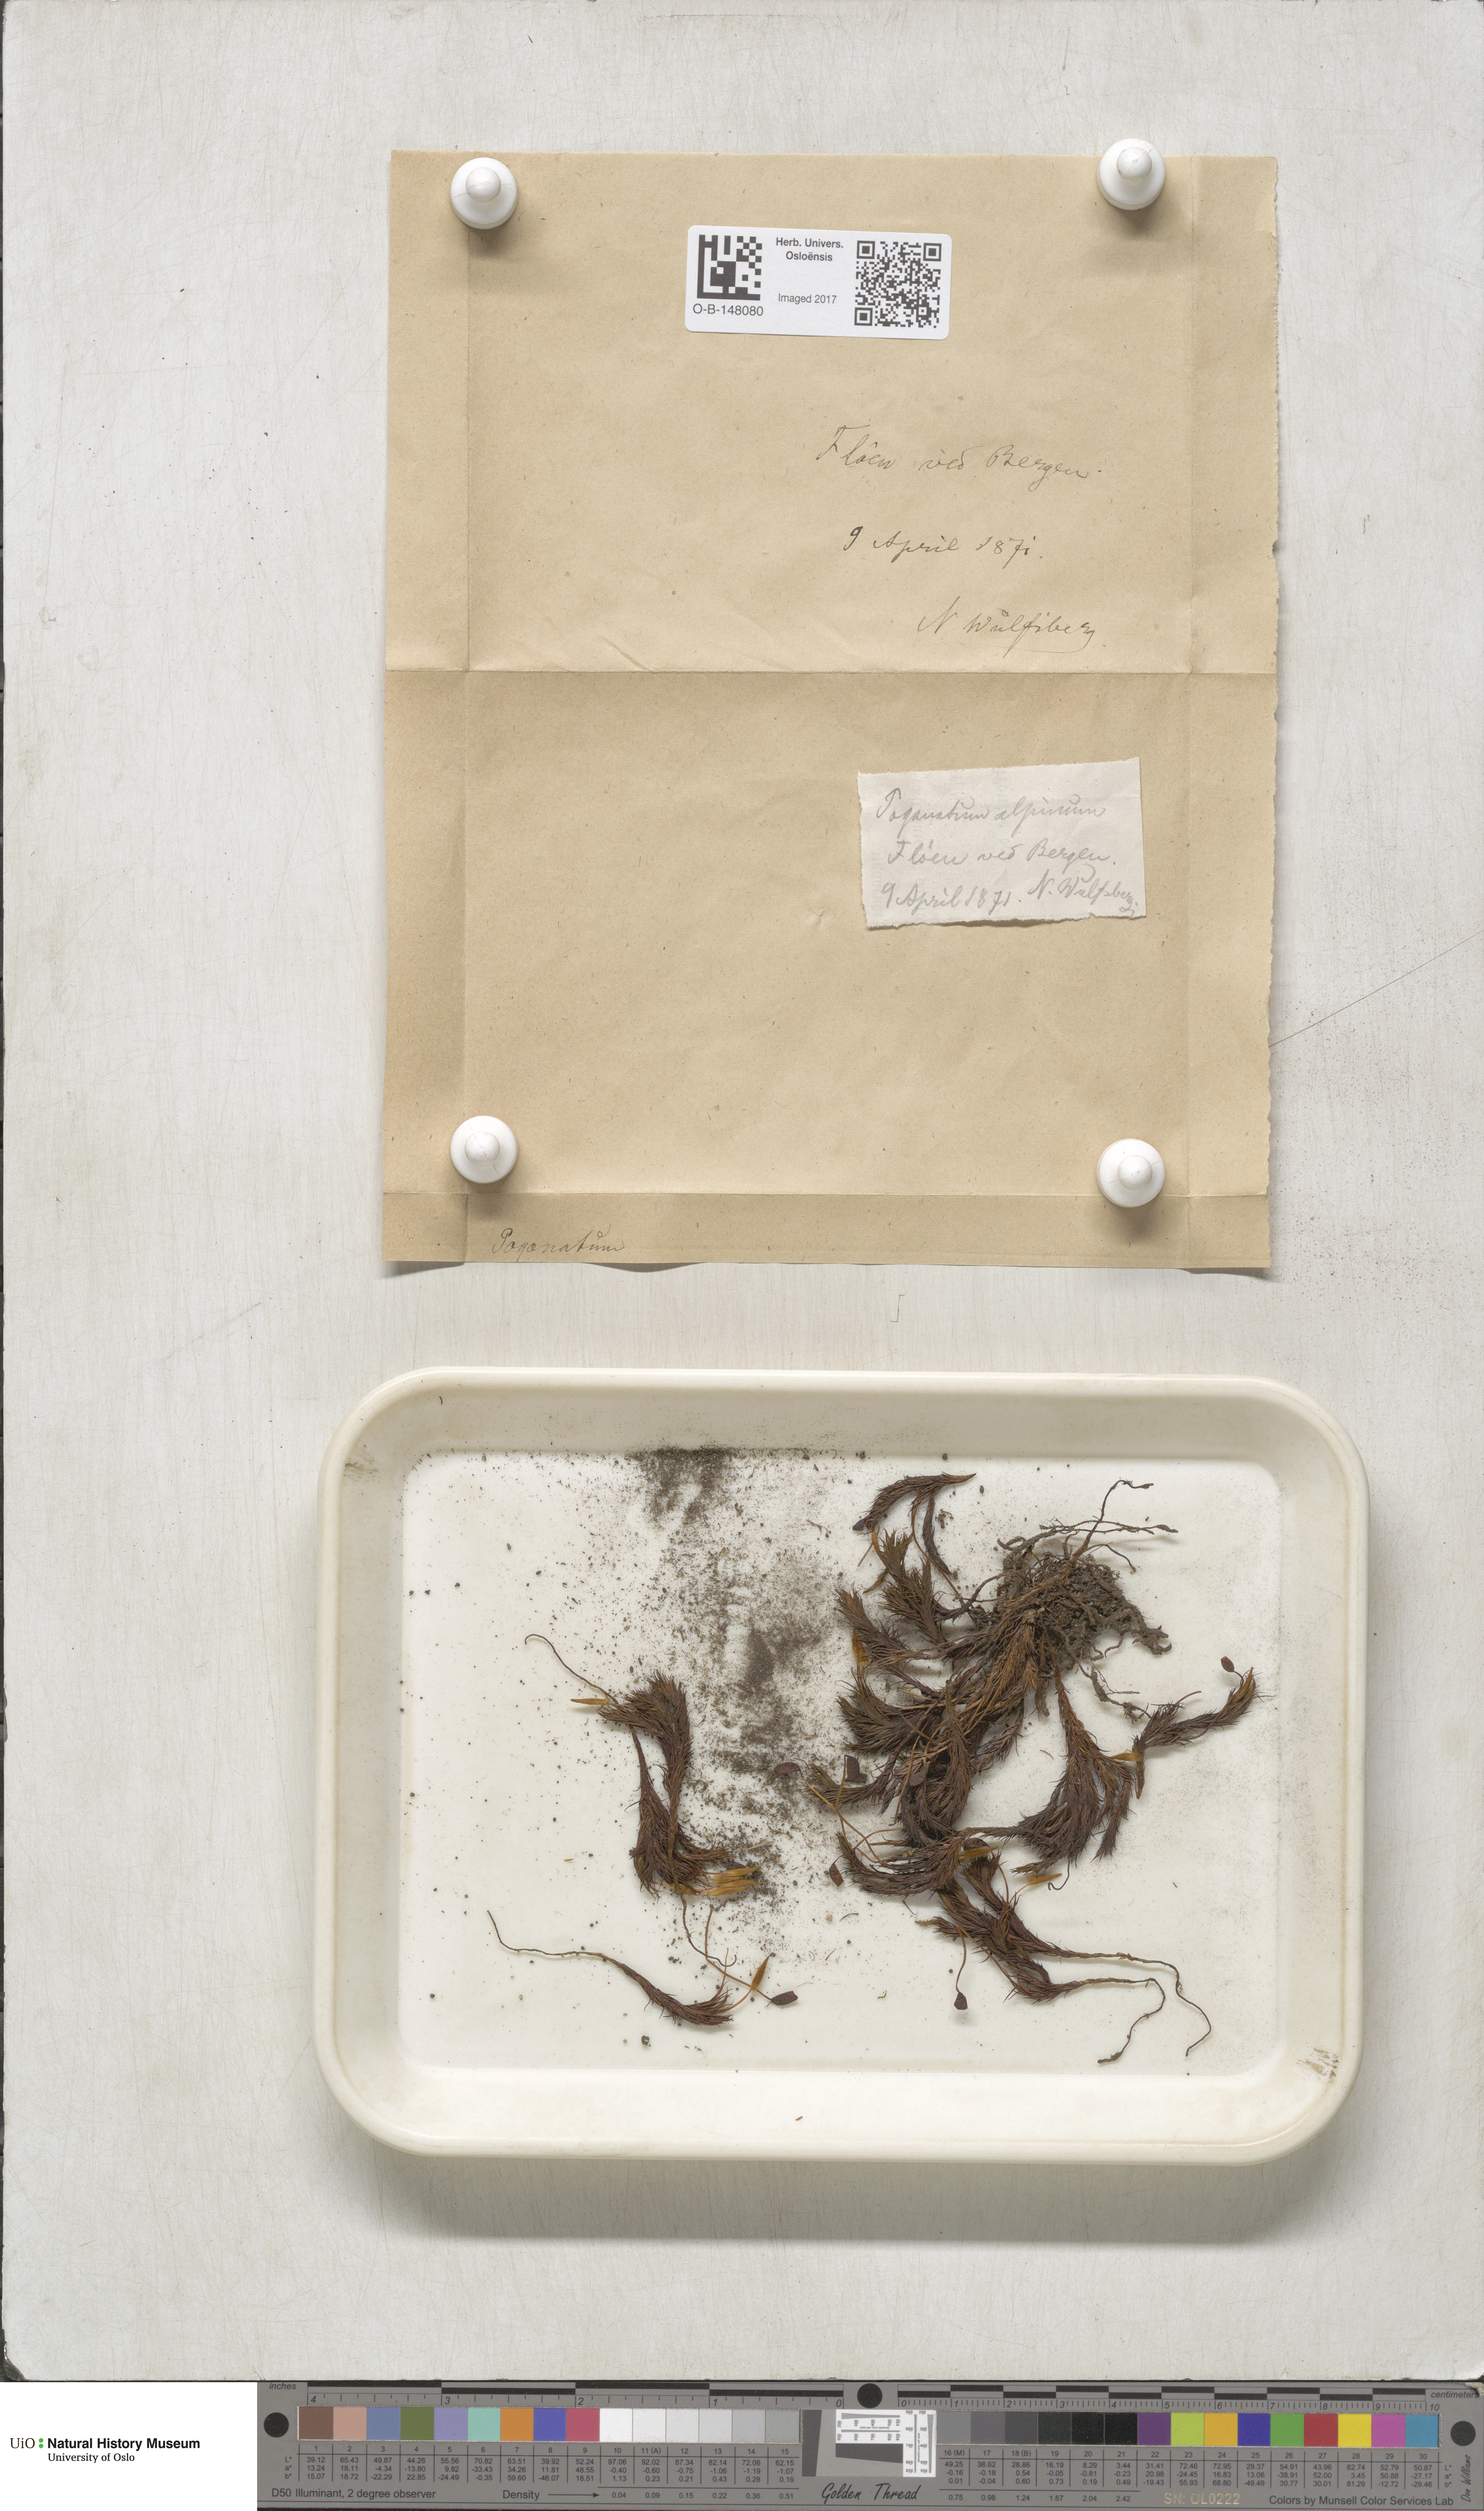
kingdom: Plantae
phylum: Bryophyta
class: Polytrichopsida
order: Polytrichales
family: Polytrichaceae
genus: Polytrichastrum
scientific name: Polytrichastrum alpinum
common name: Alpine haircap
